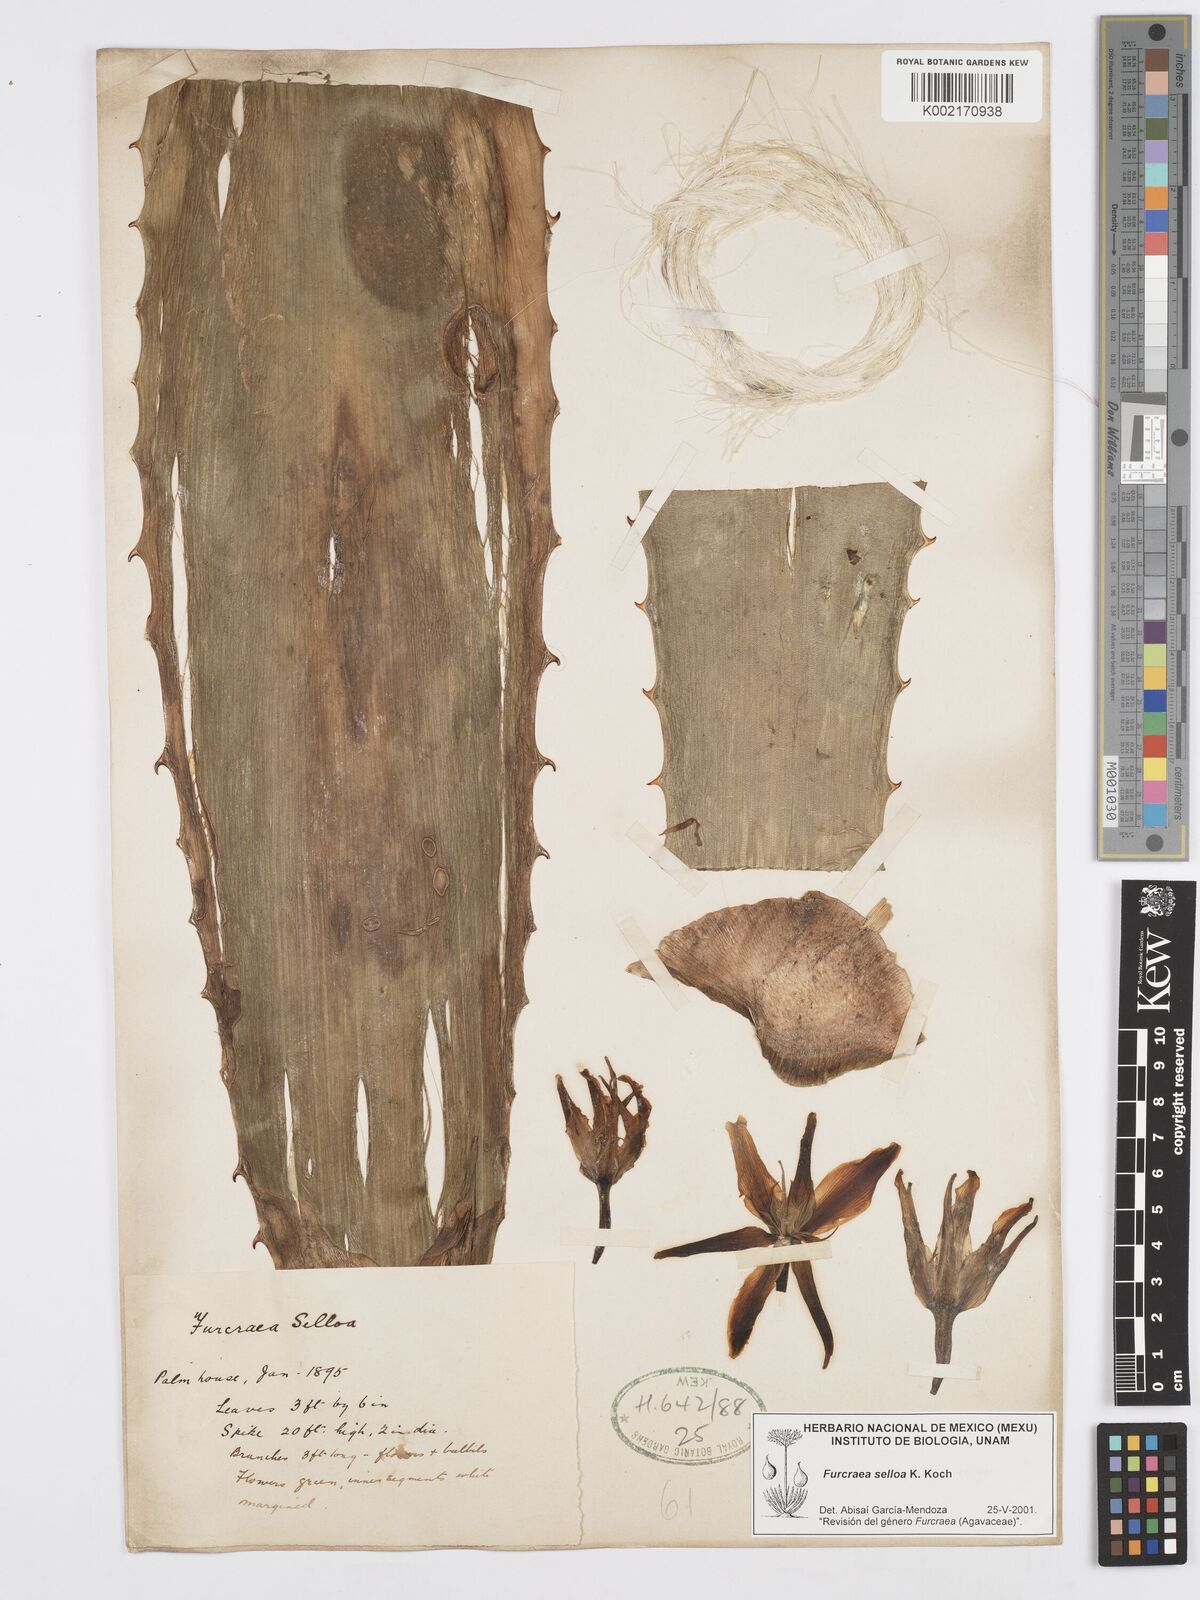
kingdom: Plantae
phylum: Tracheophyta
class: Liliopsida
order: Asparagales
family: Asparagaceae
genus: Furcraea
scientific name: Furcraea selloana
